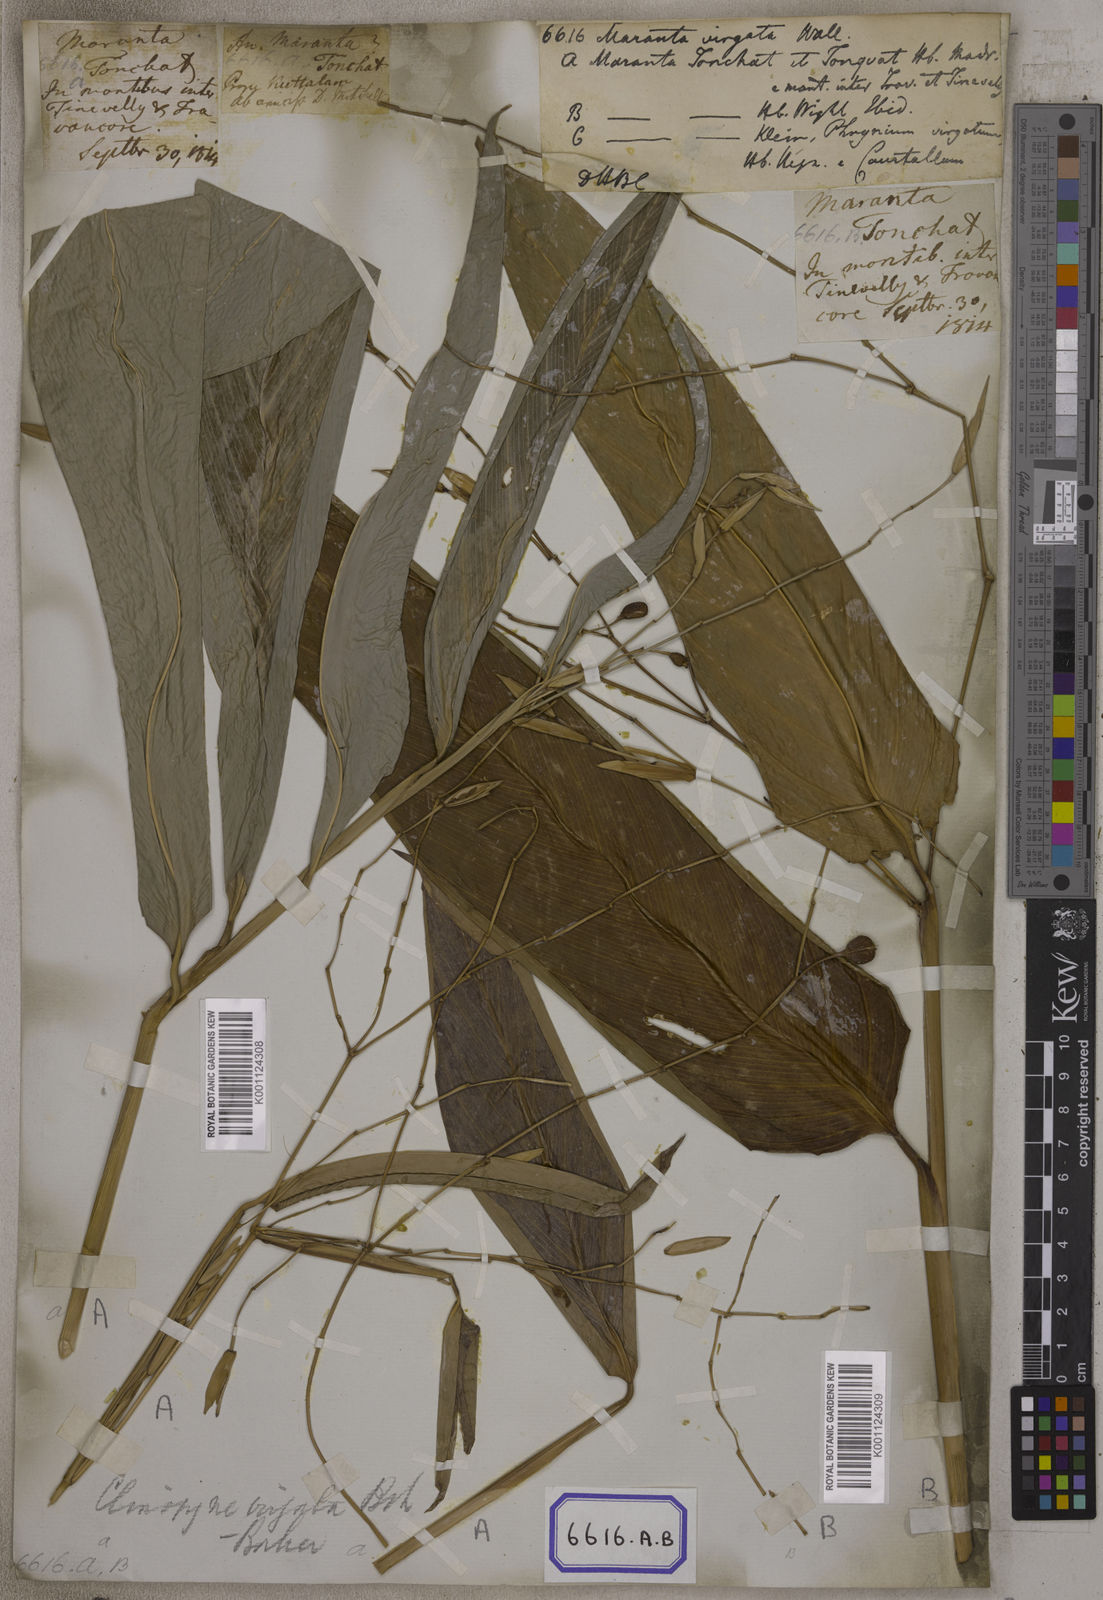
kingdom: Plantae
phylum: Tracheophyta
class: Liliopsida
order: Zingiberales
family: Marantaceae
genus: Maranta
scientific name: Maranta
